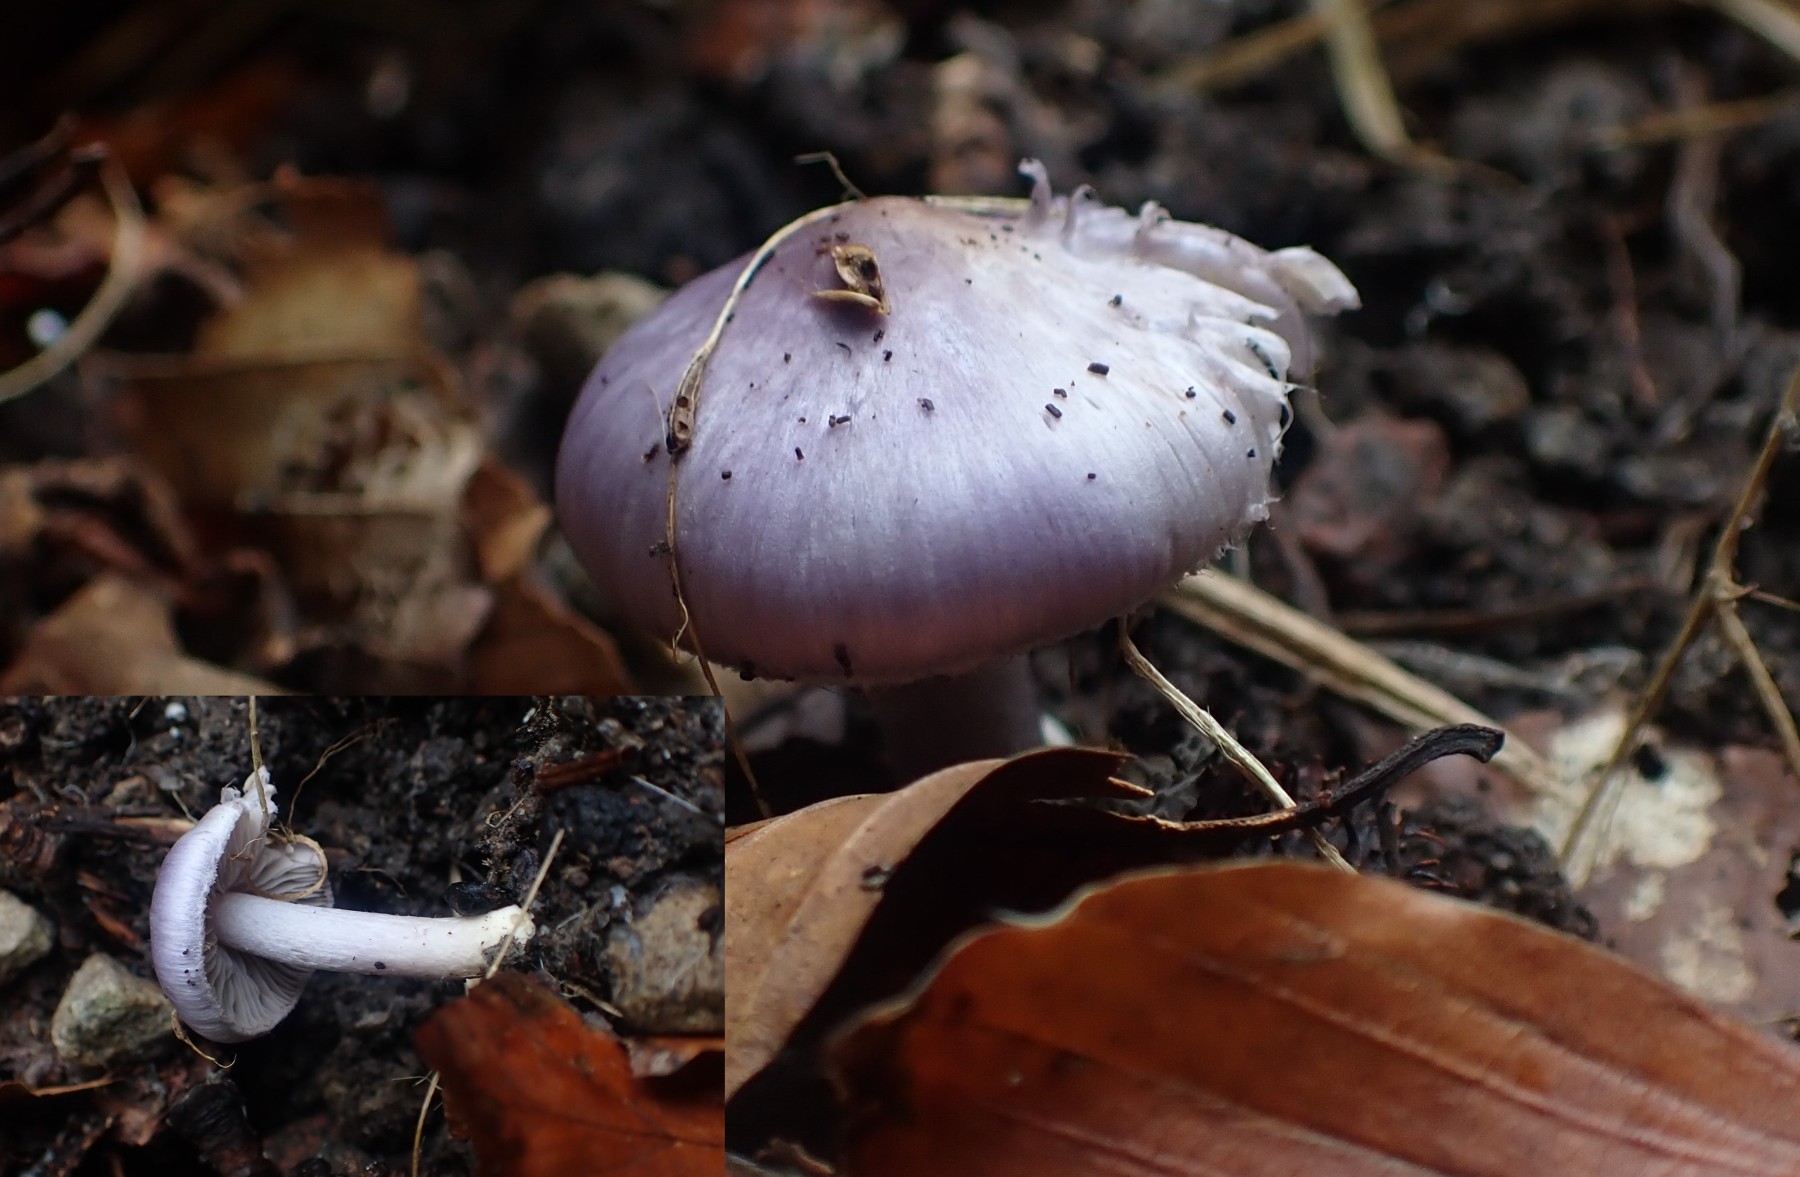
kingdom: Fungi
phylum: Basidiomycota
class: Agaricomycetes
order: Agaricales
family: Inocybaceae
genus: Inocybe
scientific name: Inocybe geophylla
